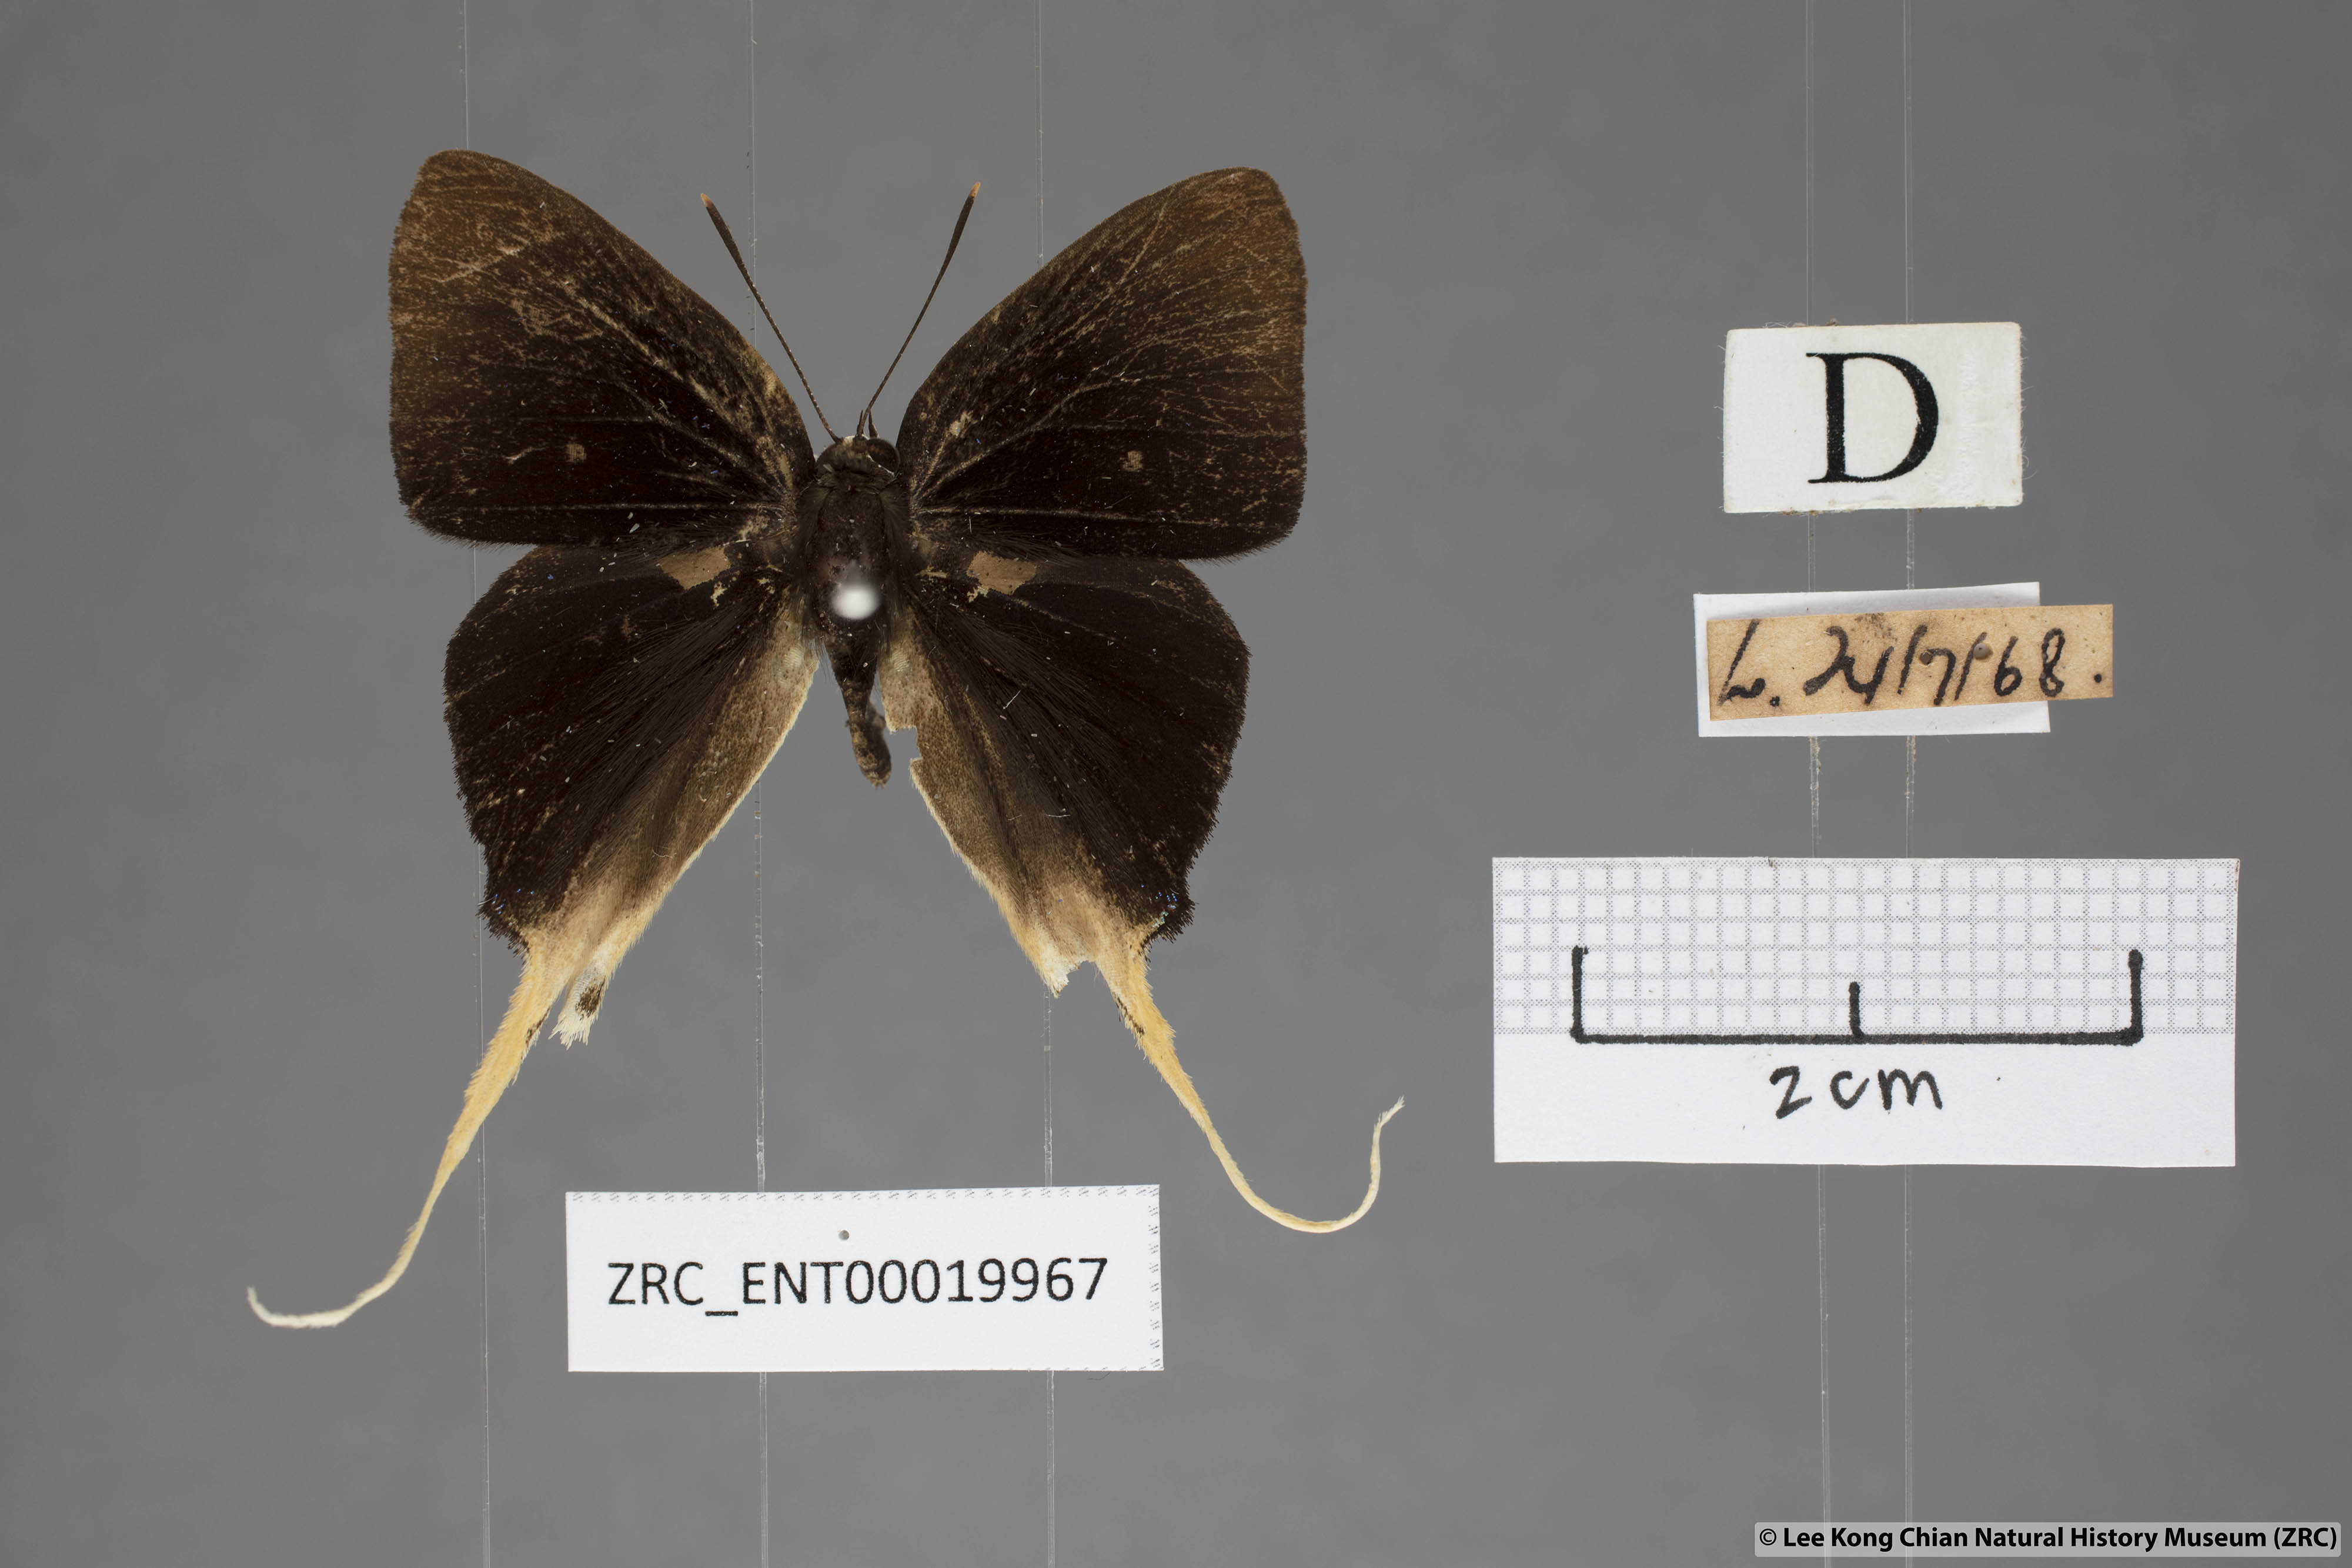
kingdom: Animalia
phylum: Arthropoda
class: Insecta
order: Lepidoptera
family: Lycaenidae
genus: Bindahara
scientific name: Bindahara phocides
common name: Sword-tailed flash
